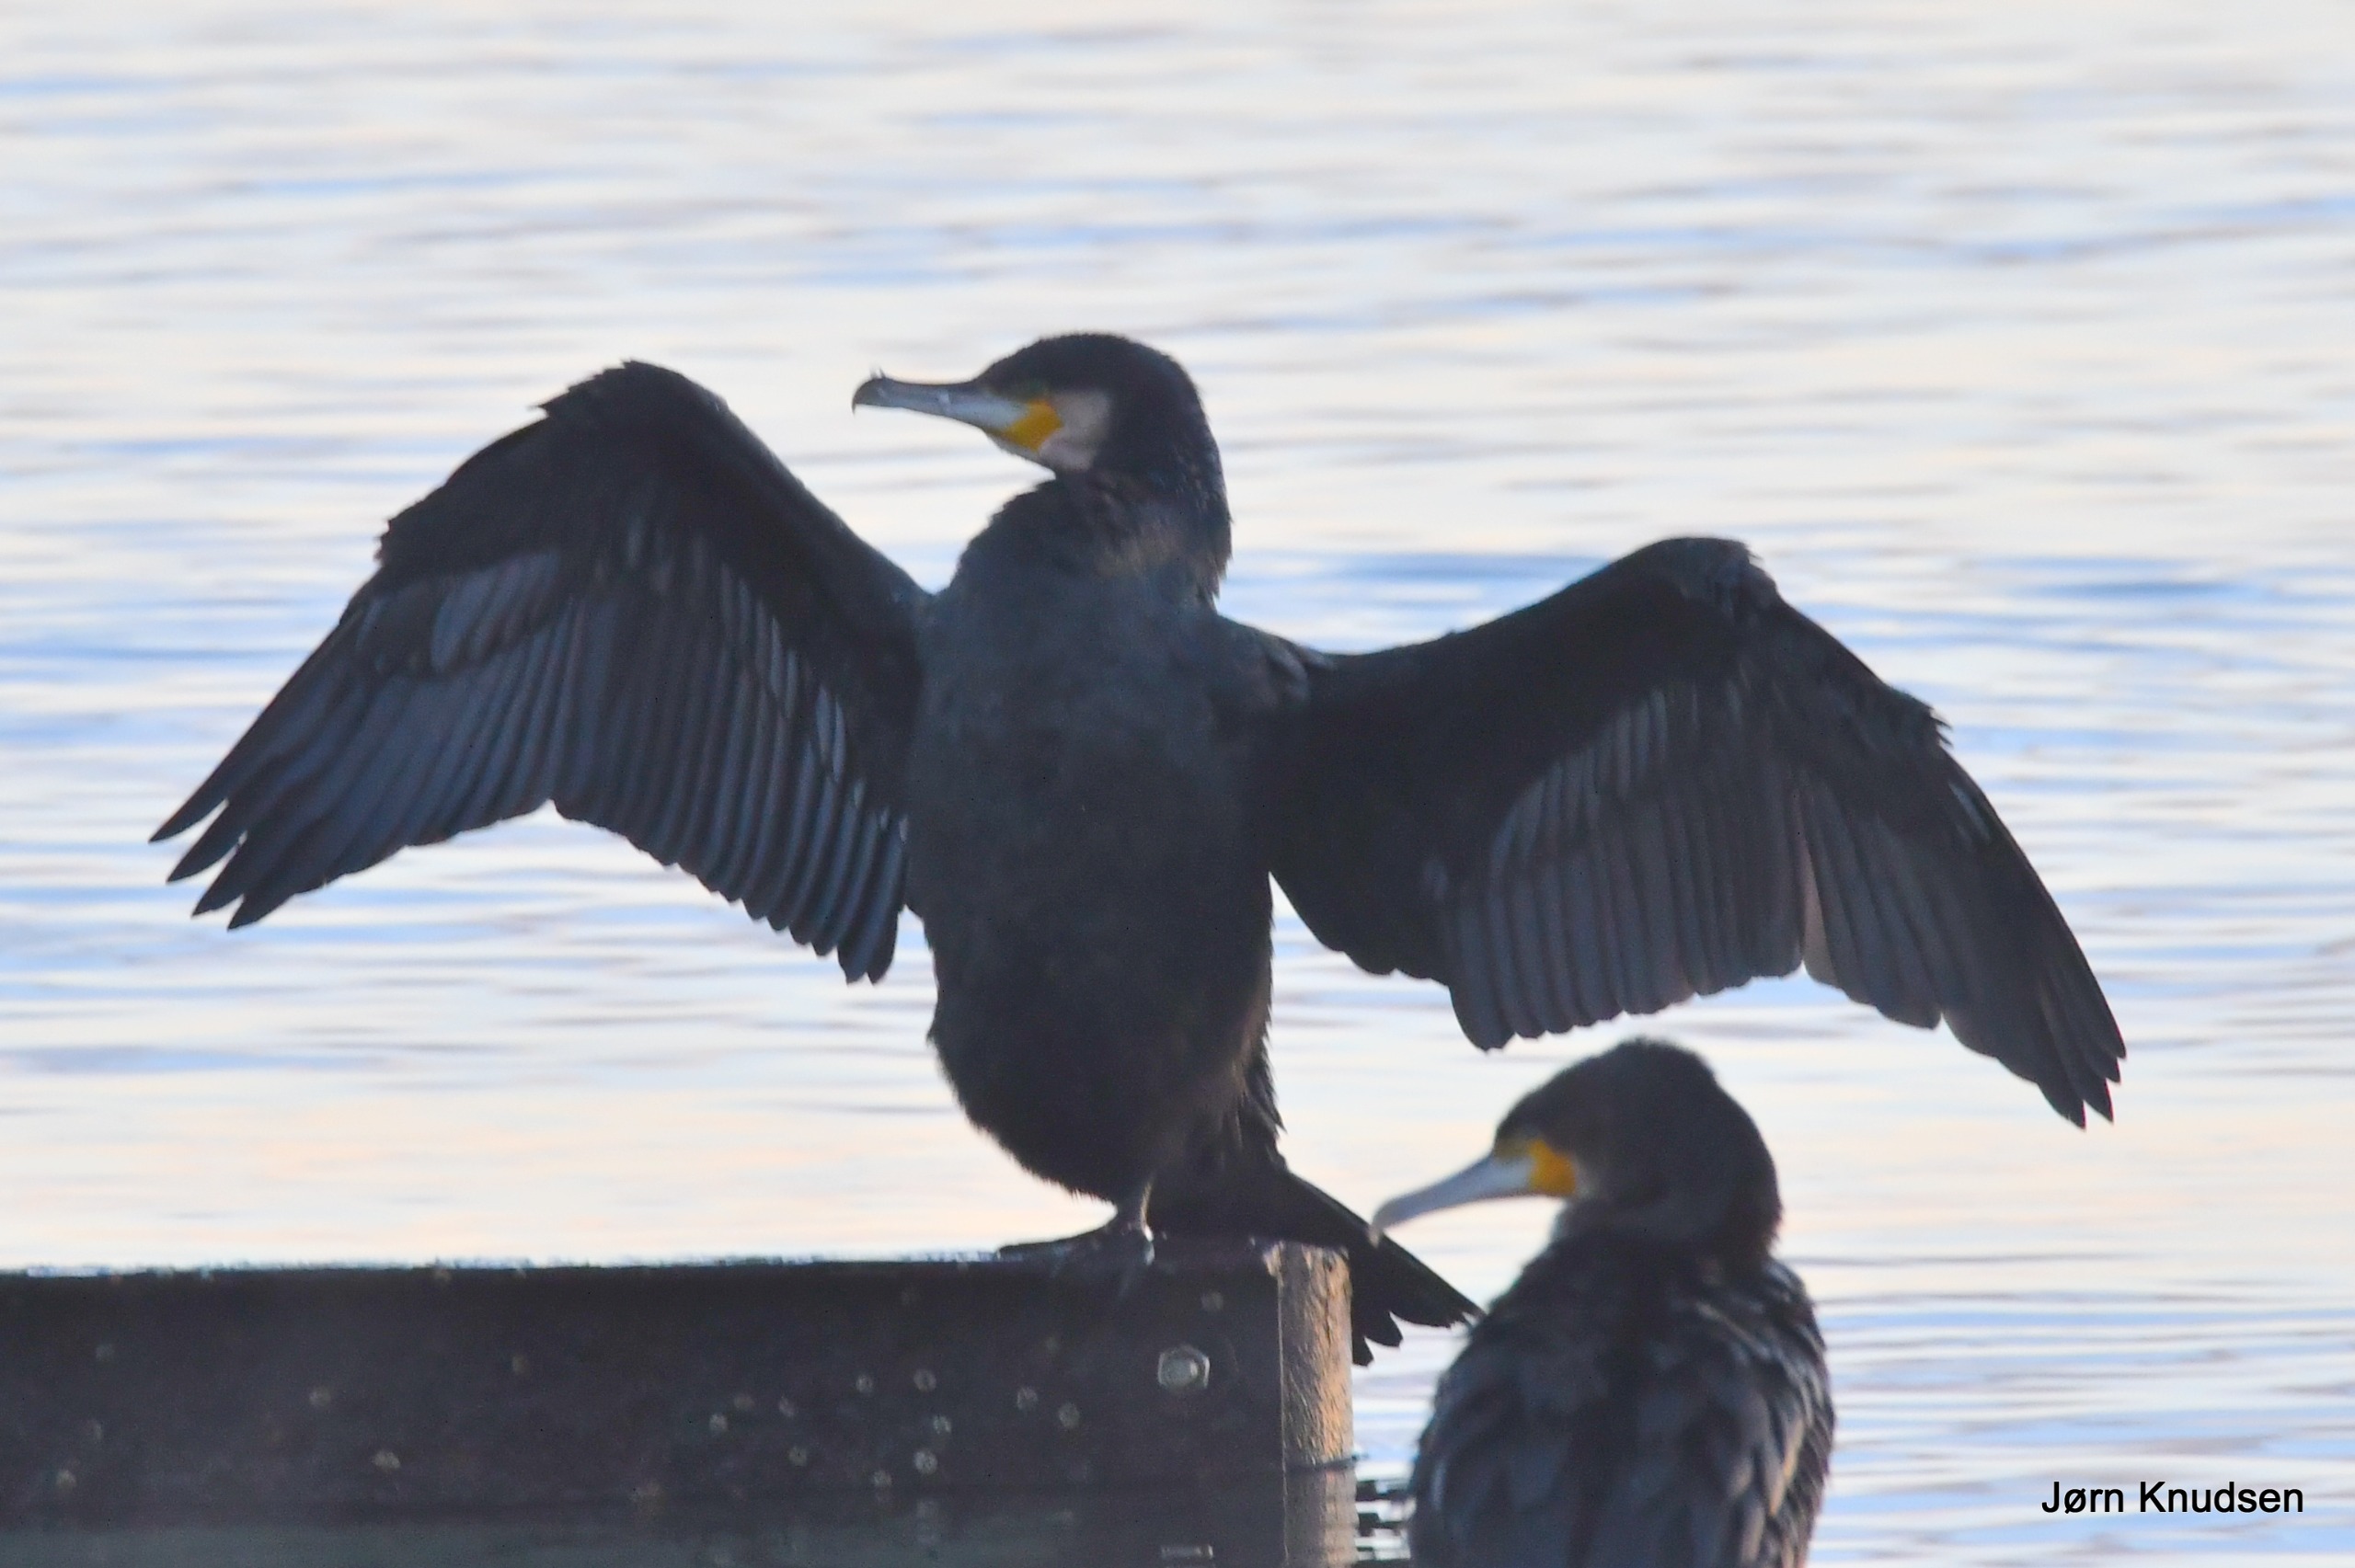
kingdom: Animalia
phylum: Chordata
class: Aves
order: Suliformes
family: Phalacrocoracidae
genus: Phalacrocorax
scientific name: Phalacrocorax carbo
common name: Skarv
